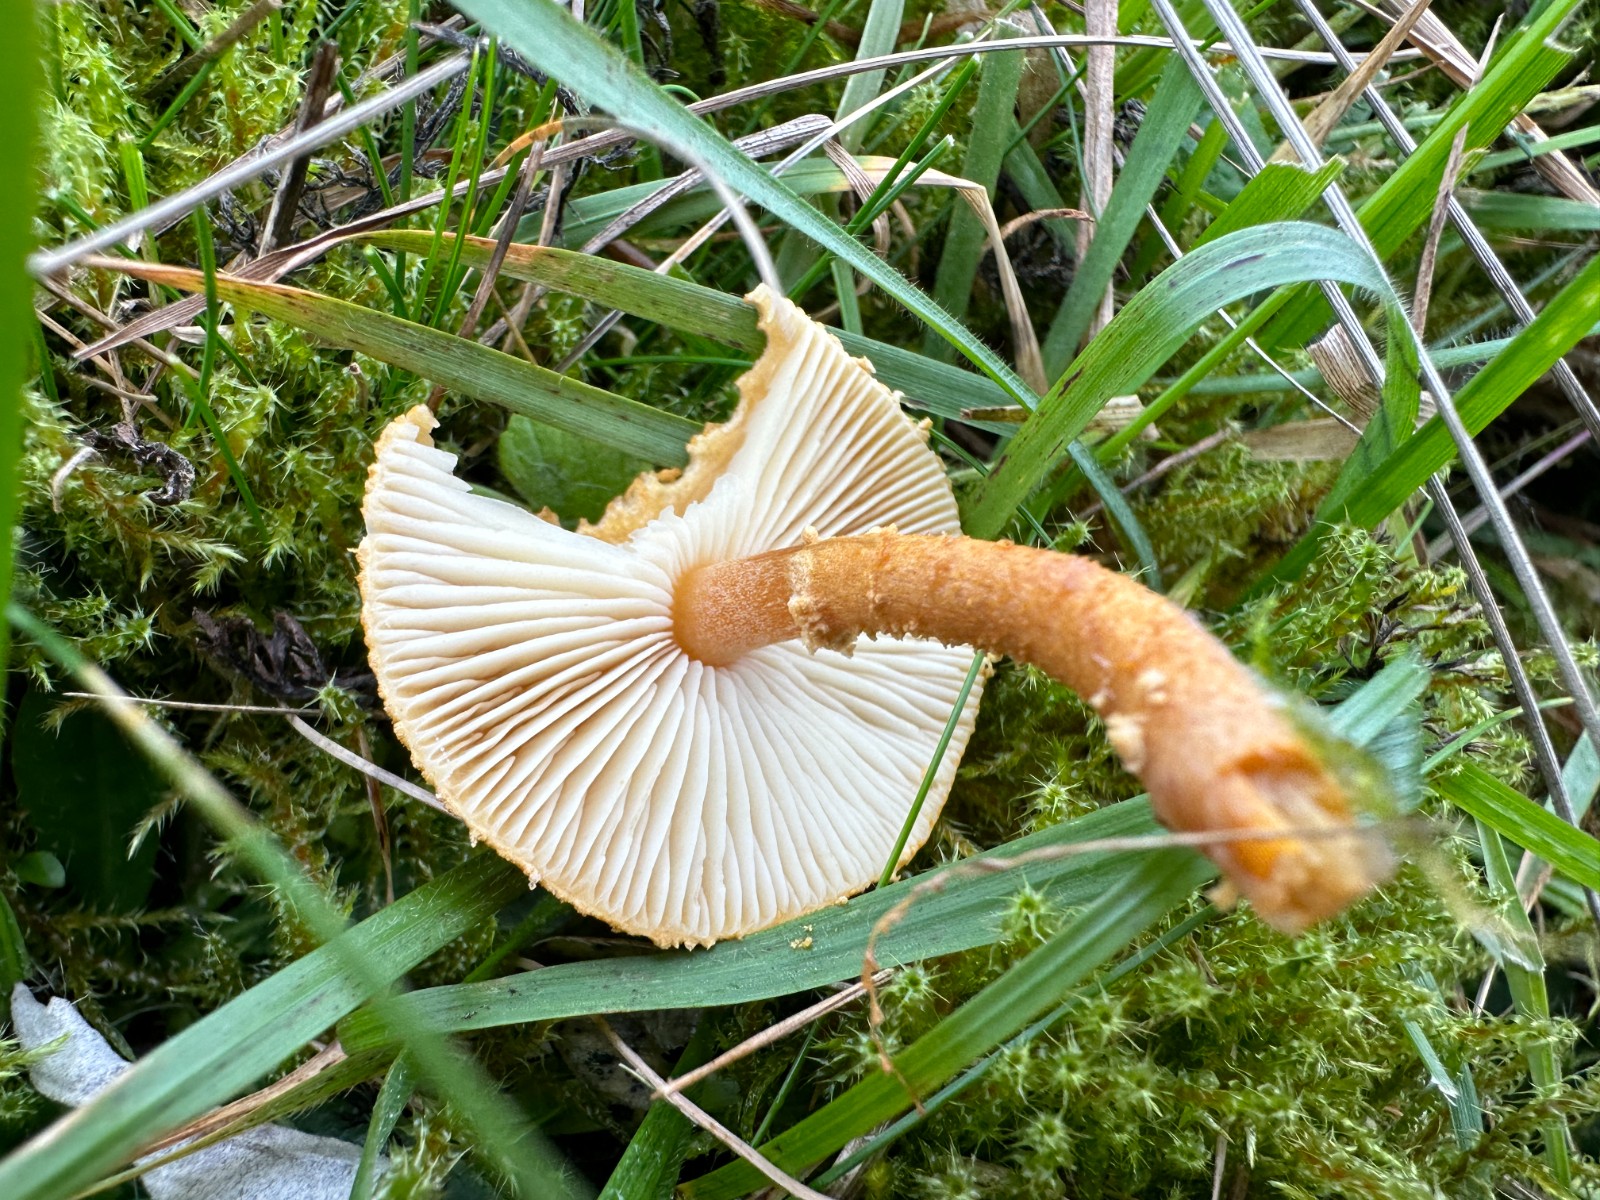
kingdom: Fungi
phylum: Basidiomycota
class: Agaricomycetes
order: Agaricales
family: Tricholomataceae
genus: Cystoderma
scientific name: Cystoderma amianthinum
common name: okkergul grynhat
